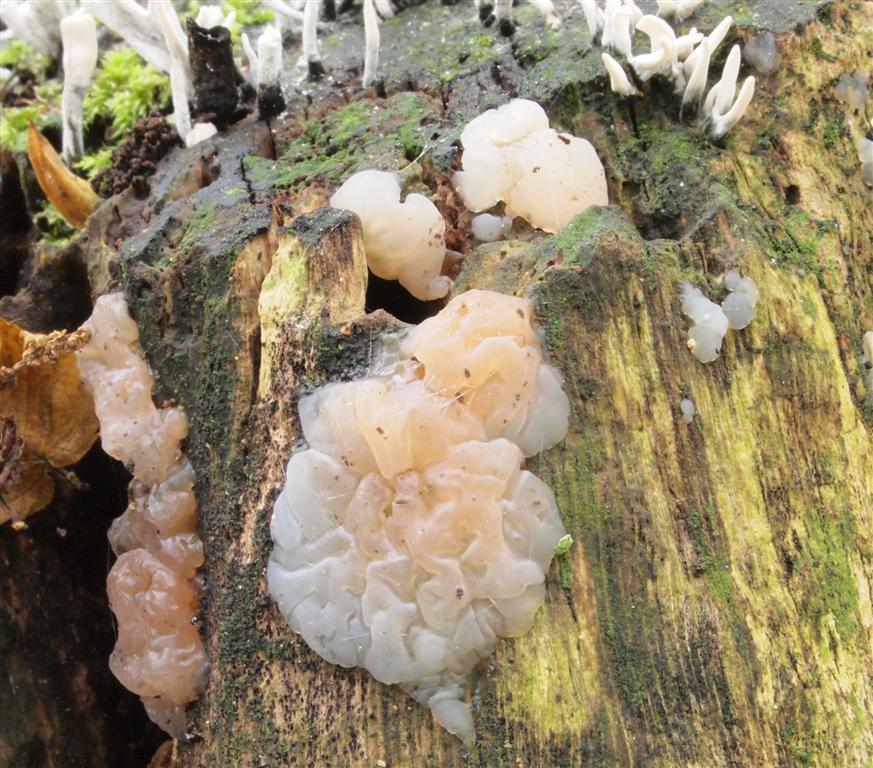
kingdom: Fungi
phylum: Basidiomycota
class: Agaricomycetes
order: Auriculariales
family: Auriculariaceae
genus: Exidia
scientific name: Exidia thuretiana
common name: hvidlig bævretop
